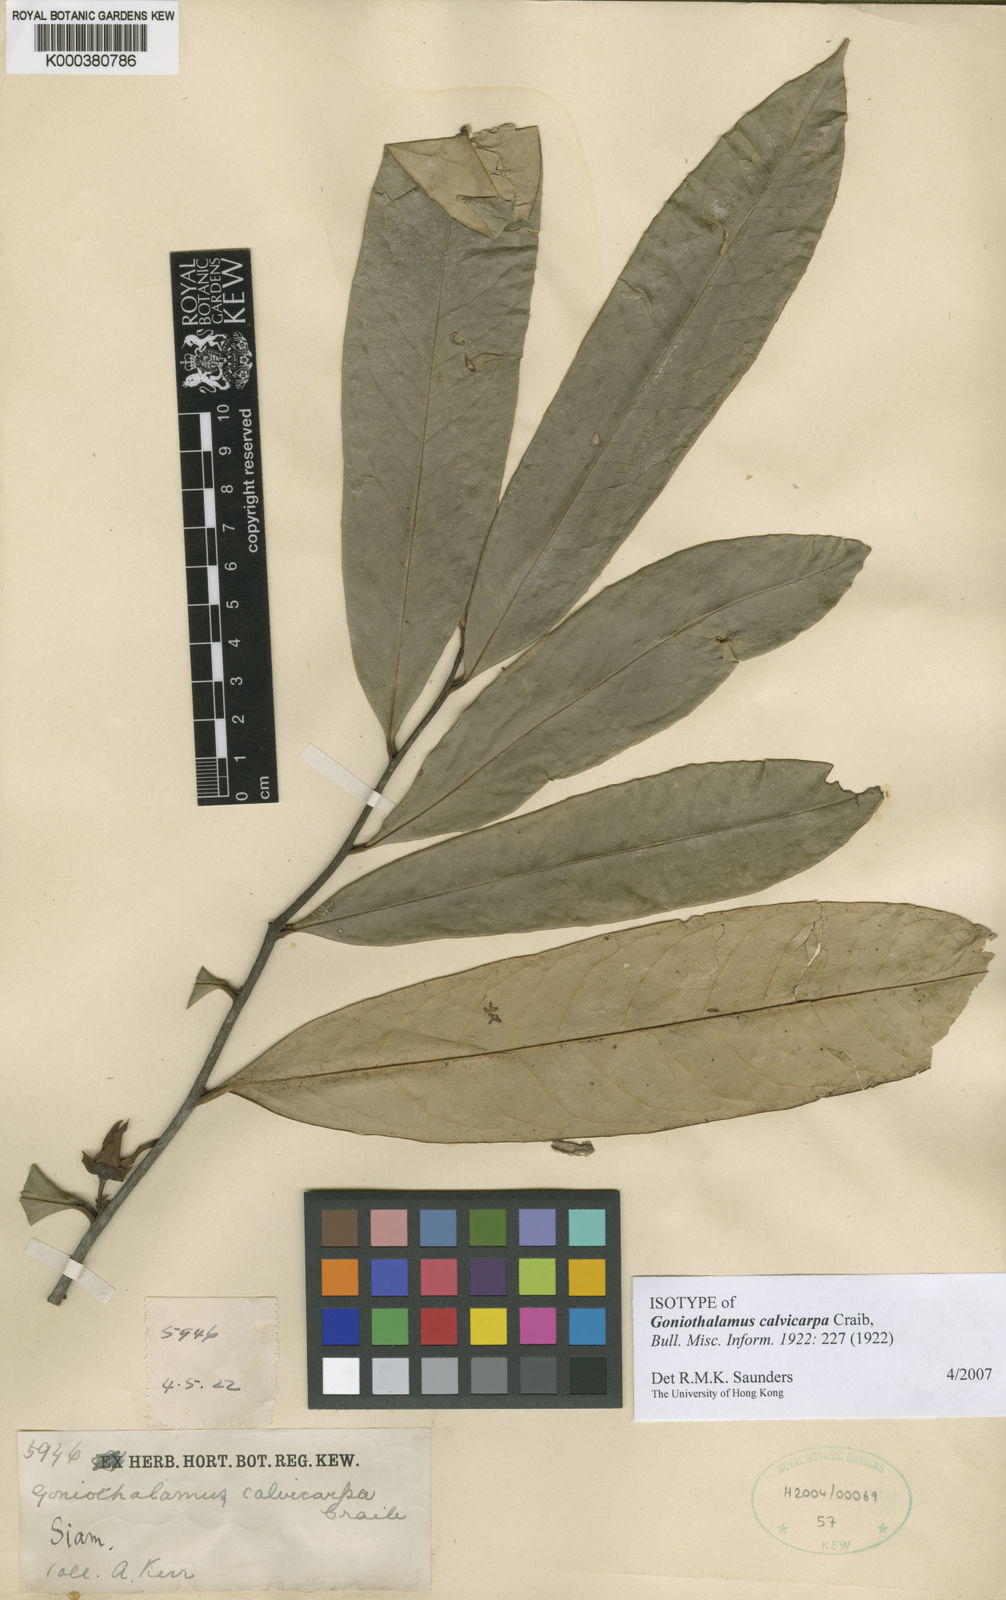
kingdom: Plantae
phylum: Tracheophyta
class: Magnoliopsida
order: Magnoliales
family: Annonaceae
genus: Goniothalamus
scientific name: Goniothalamus calvicarpus
